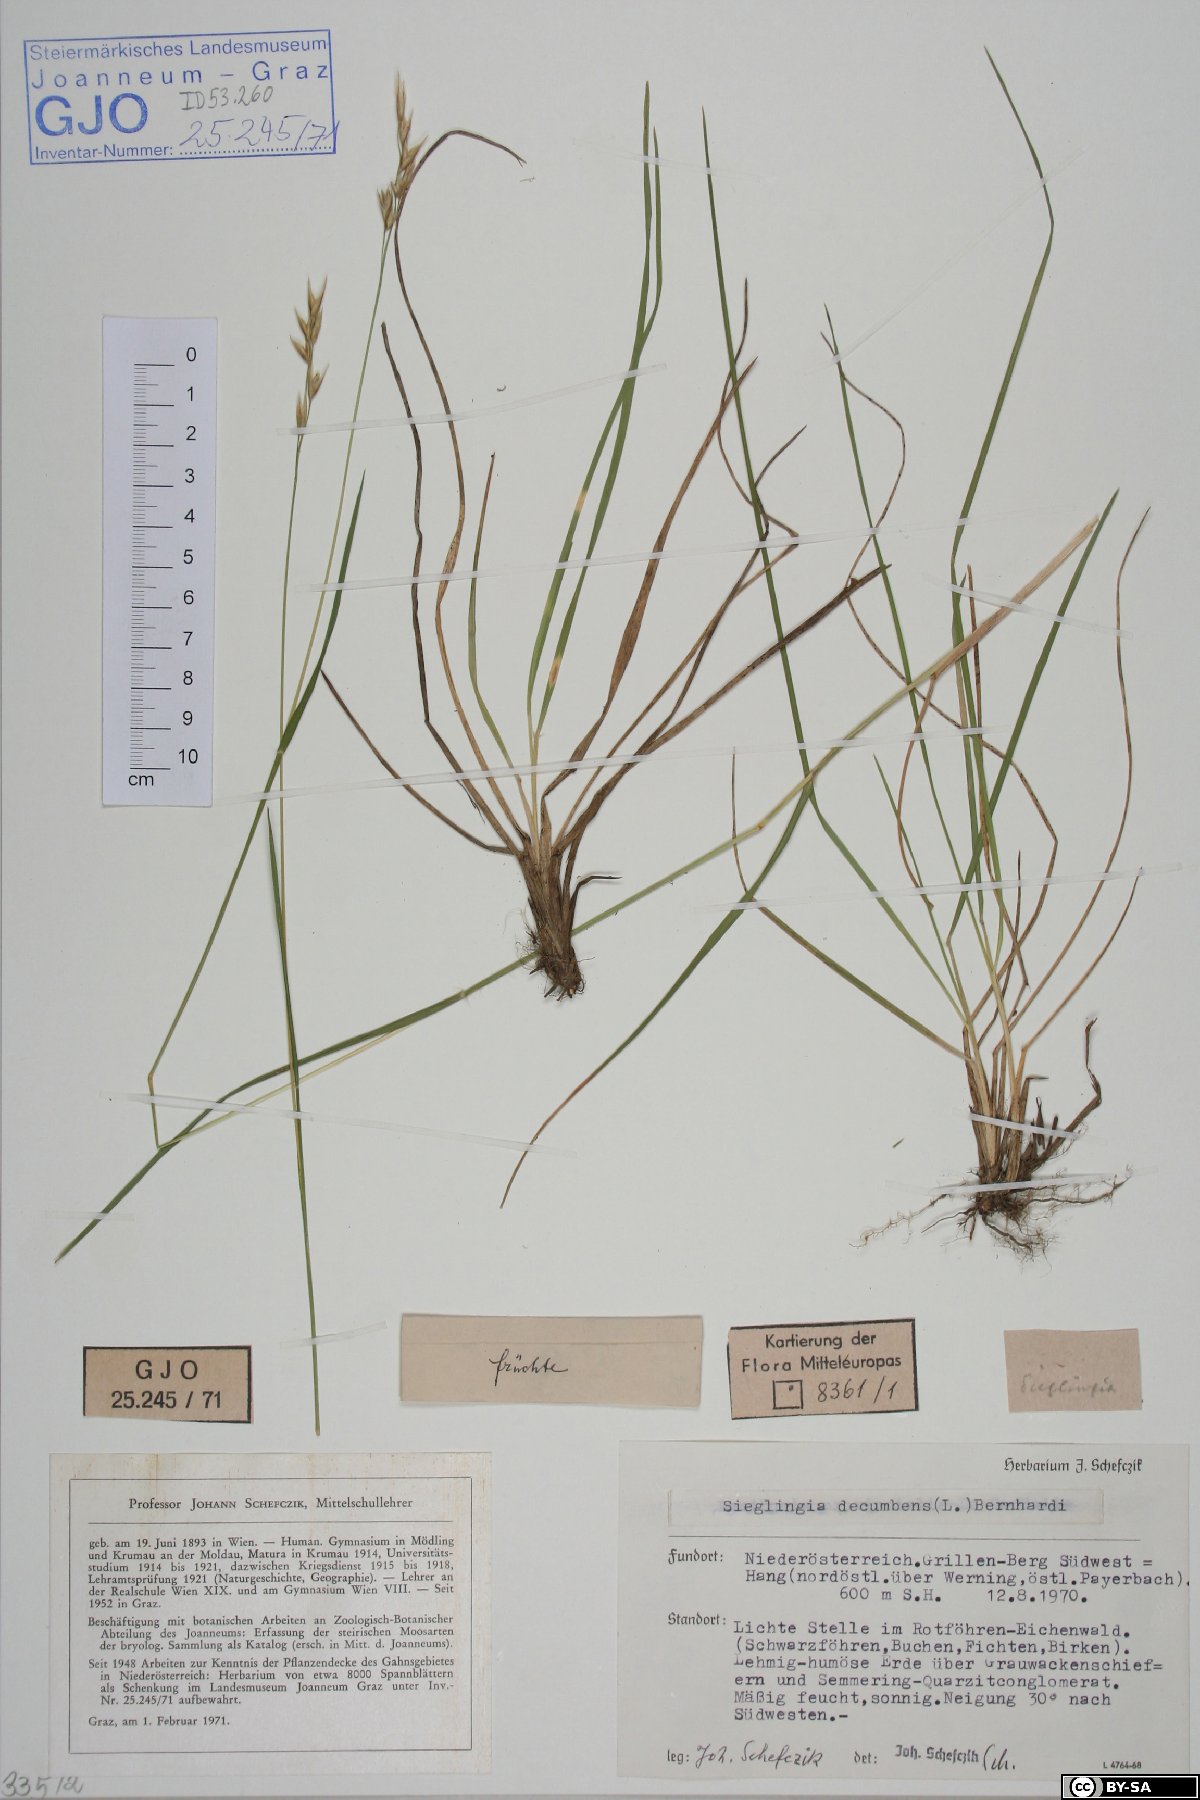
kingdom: Plantae
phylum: Tracheophyta
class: Liliopsida
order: Poales
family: Poaceae
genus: Danthonia
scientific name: Danthonia decumbens
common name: Common heathgrass
